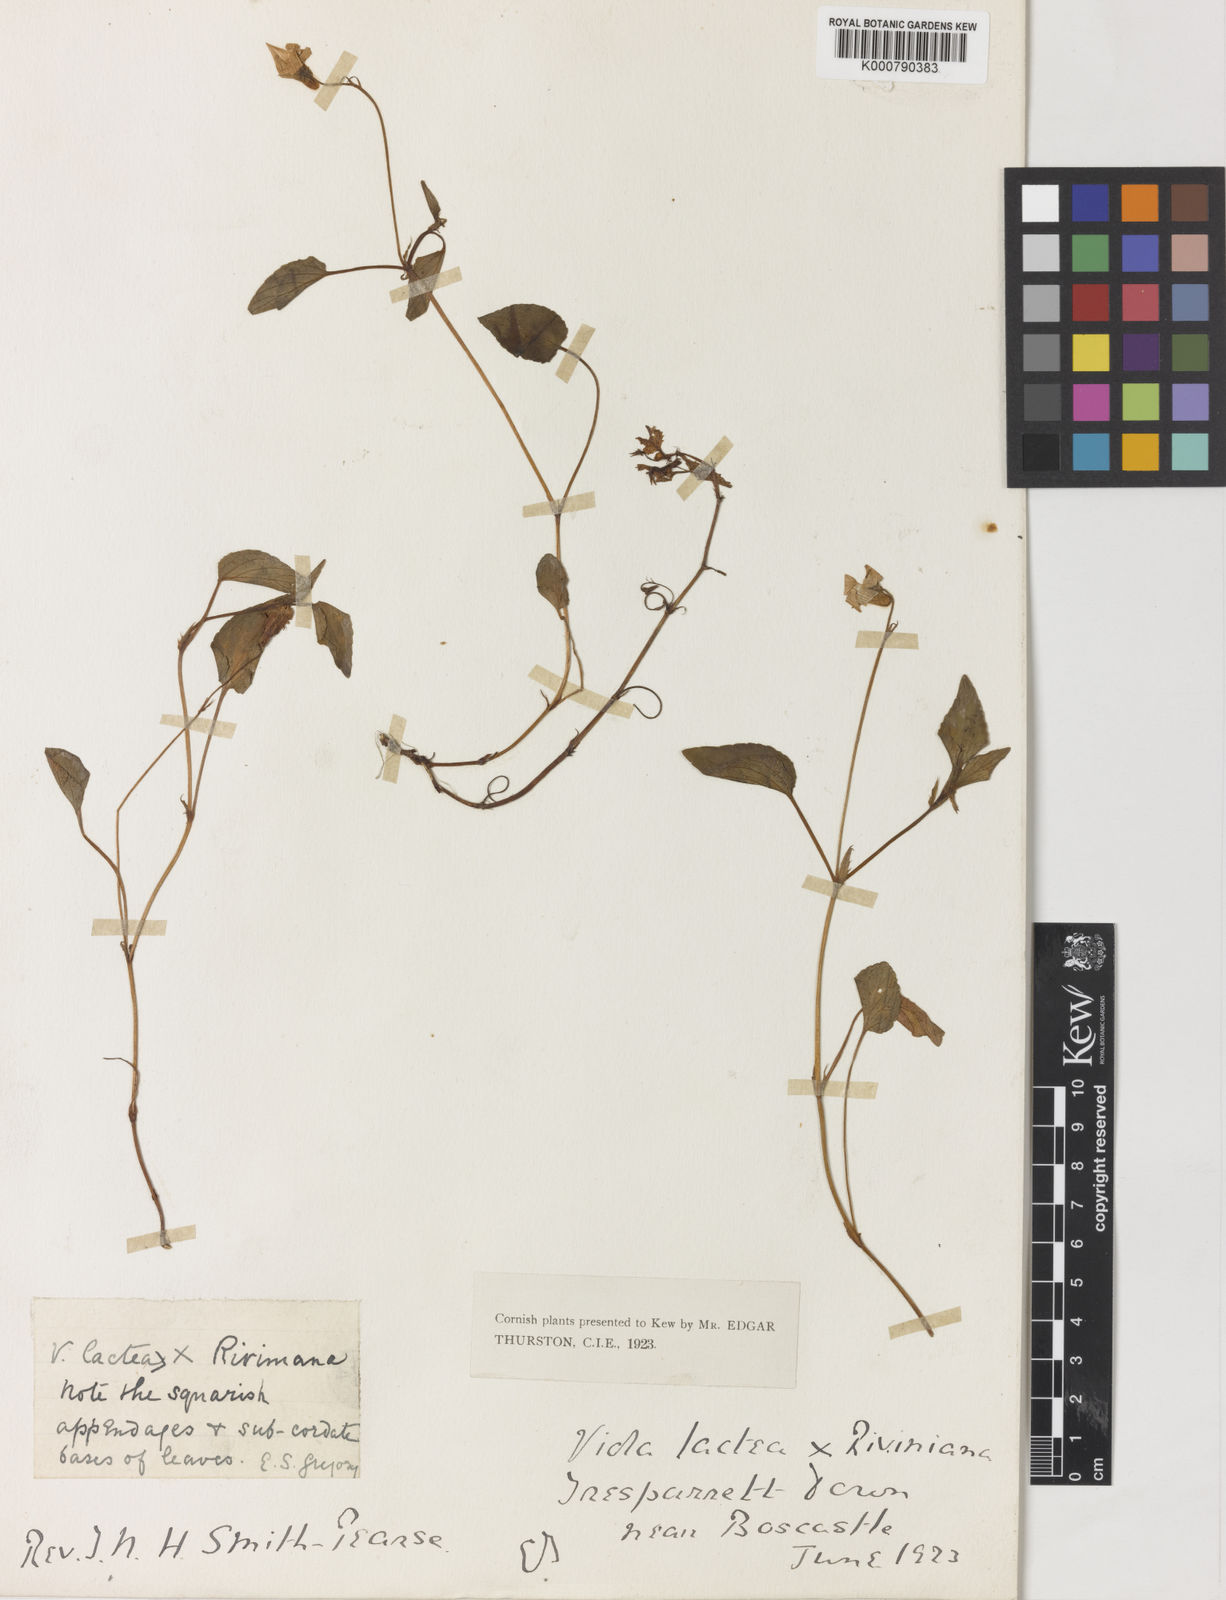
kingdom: Plantae
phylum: Tracheophyta
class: Magnoliopsida
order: Malpighiales
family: Violaceae
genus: Viola
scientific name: Viola lactea
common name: Pale dog-violet
